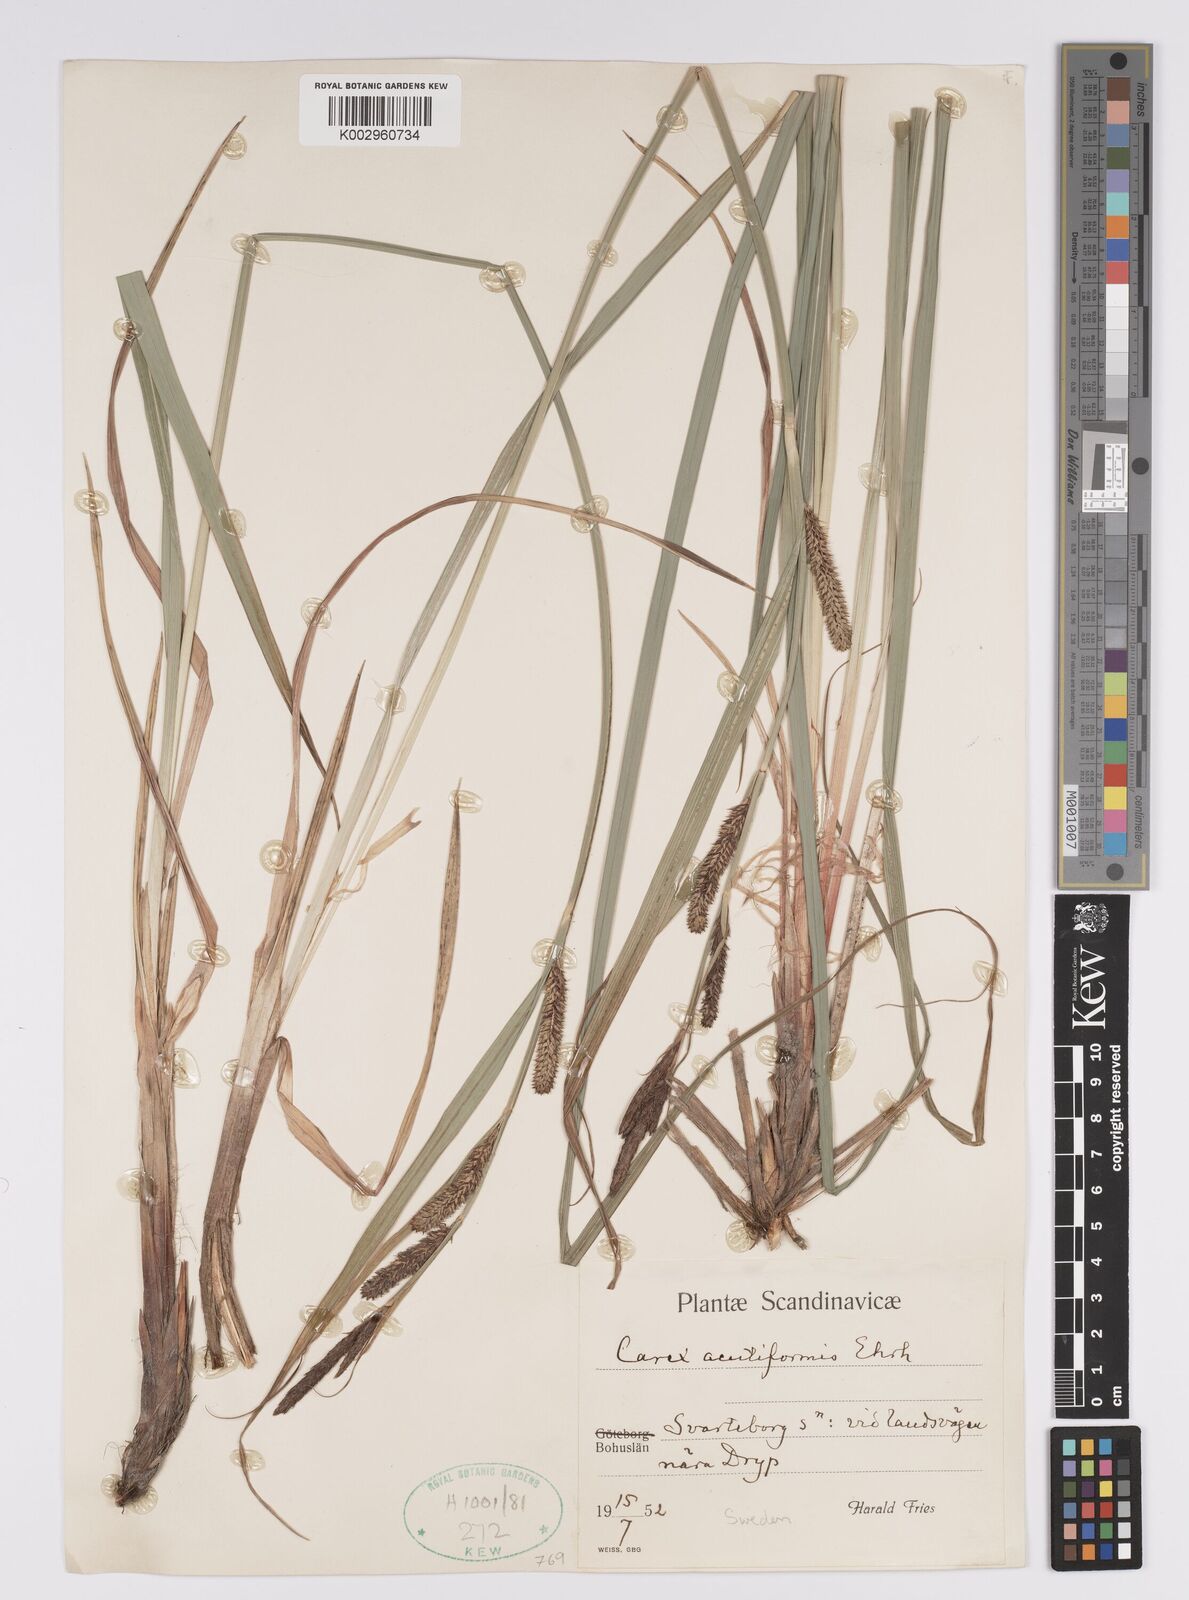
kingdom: Plantae
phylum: Tracheophyta
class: Liliopsida
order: Poales
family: Cyperaceae
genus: Carex
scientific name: Carex acutiformis
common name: Lesser pond-sedge
